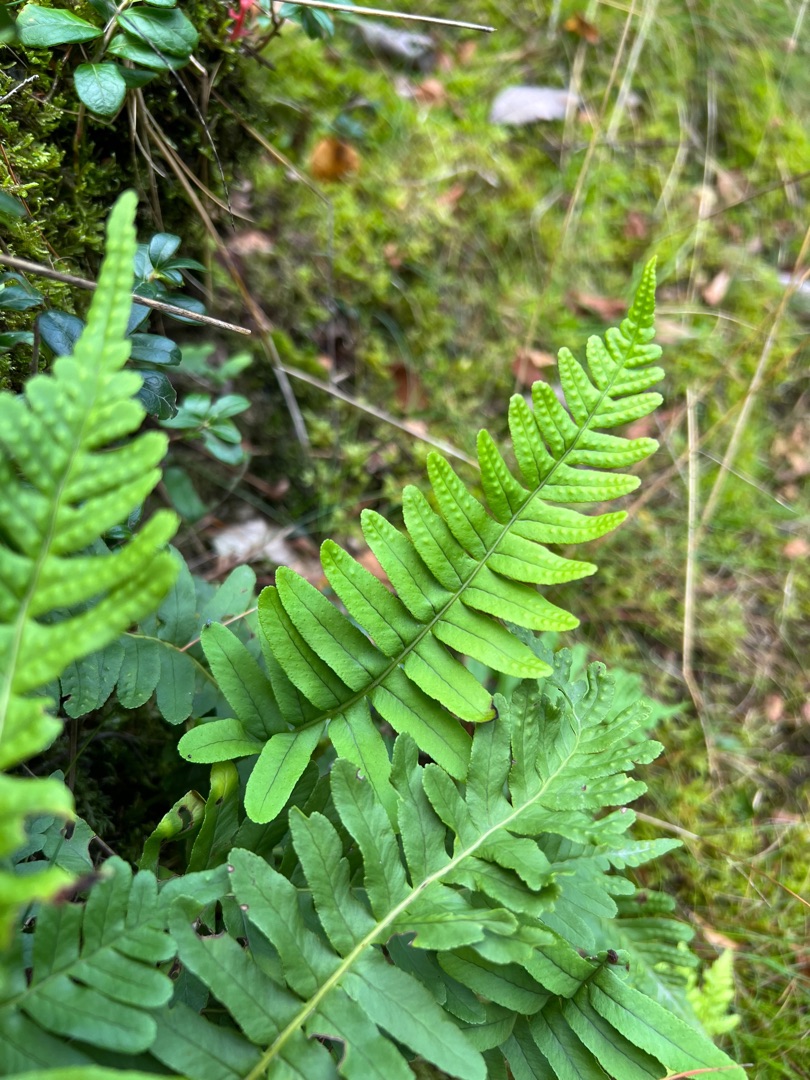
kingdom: Plantae
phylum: Tracheophyta
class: Polypodiopsida
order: Polypodiales
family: Polypodiaceae
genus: Polypodium
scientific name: Polypodium vulgare
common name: Almindelig engelsød
